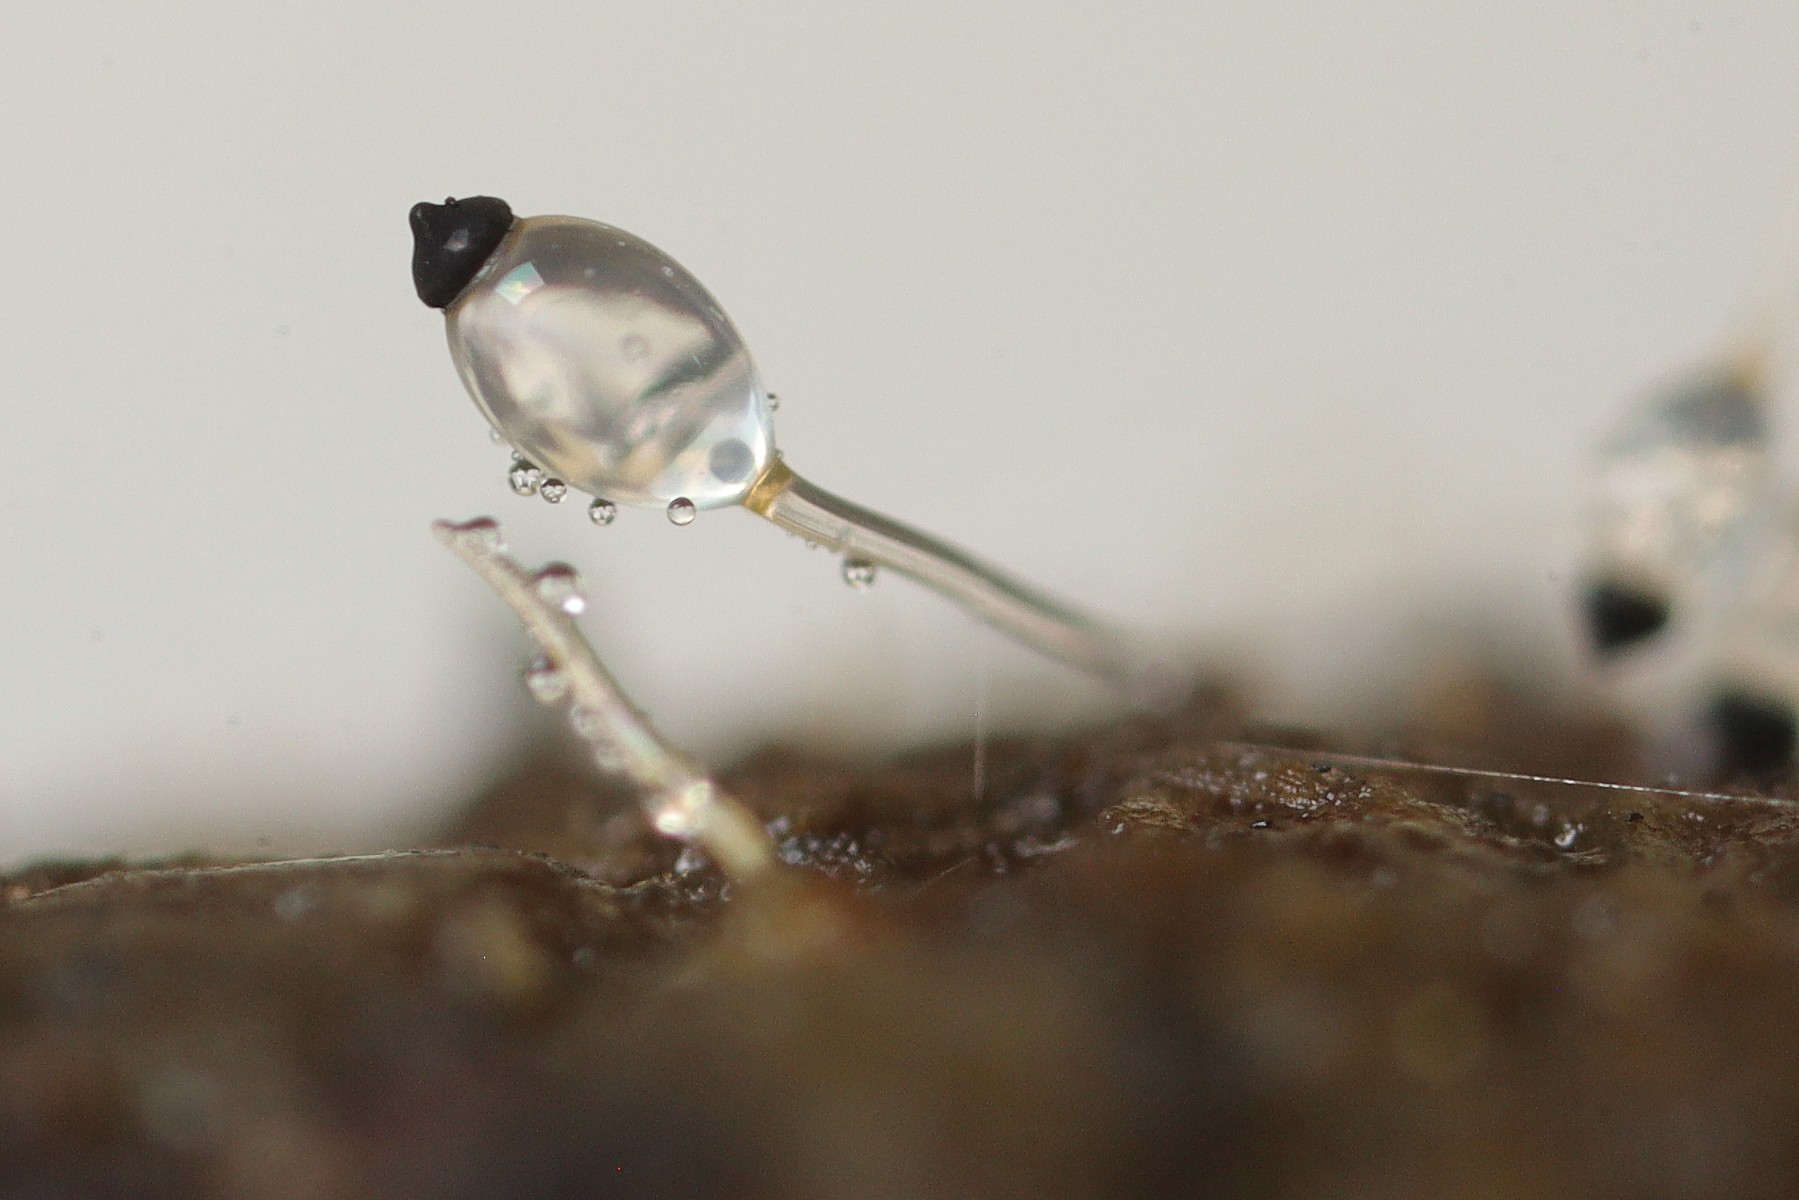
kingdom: Fungi
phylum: Mucoromycota
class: Mucoromycetes
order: Mucorales
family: Pilobolaceae
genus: Pilobolus
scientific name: Pilobolus umbonatus
